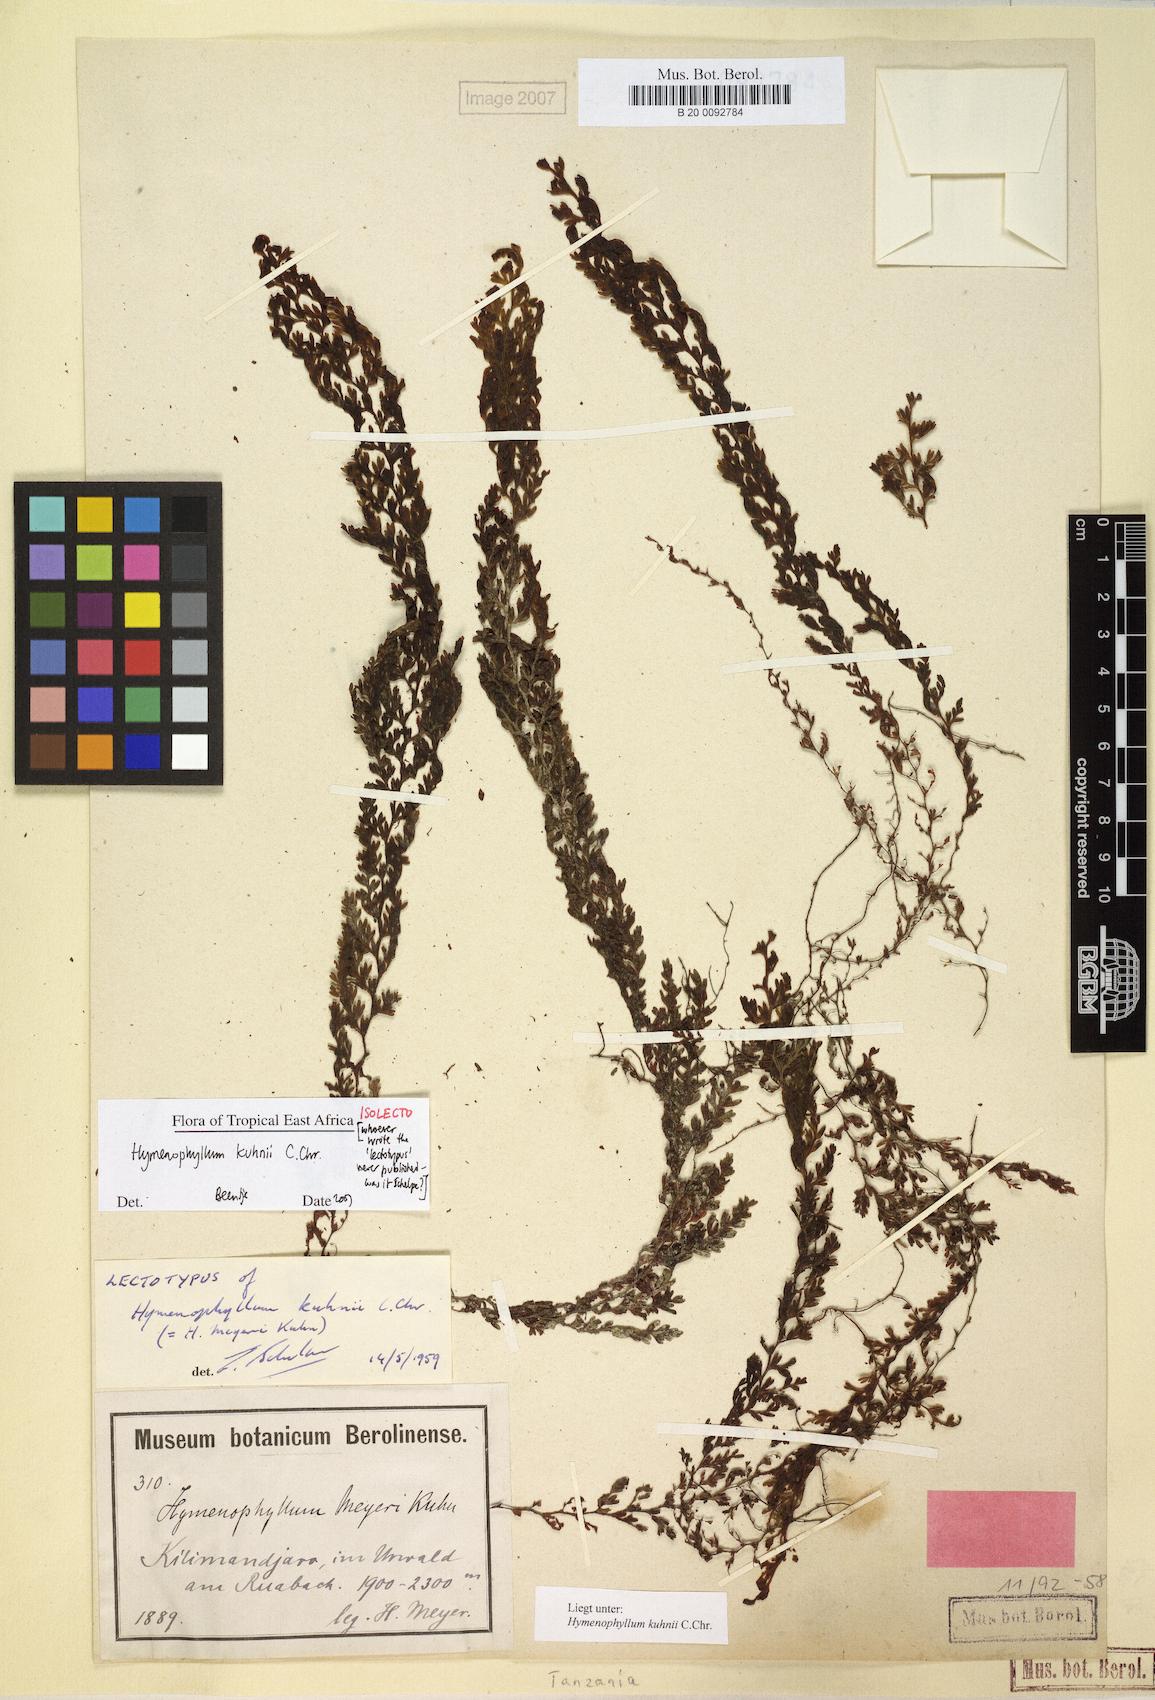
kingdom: Plantae
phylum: Tracheophyta
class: Polypodiopsida
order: Hymenophyllales
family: Hymenophyllaceae
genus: Hymenophyllum
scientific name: Hymenophyllum kuhnii
